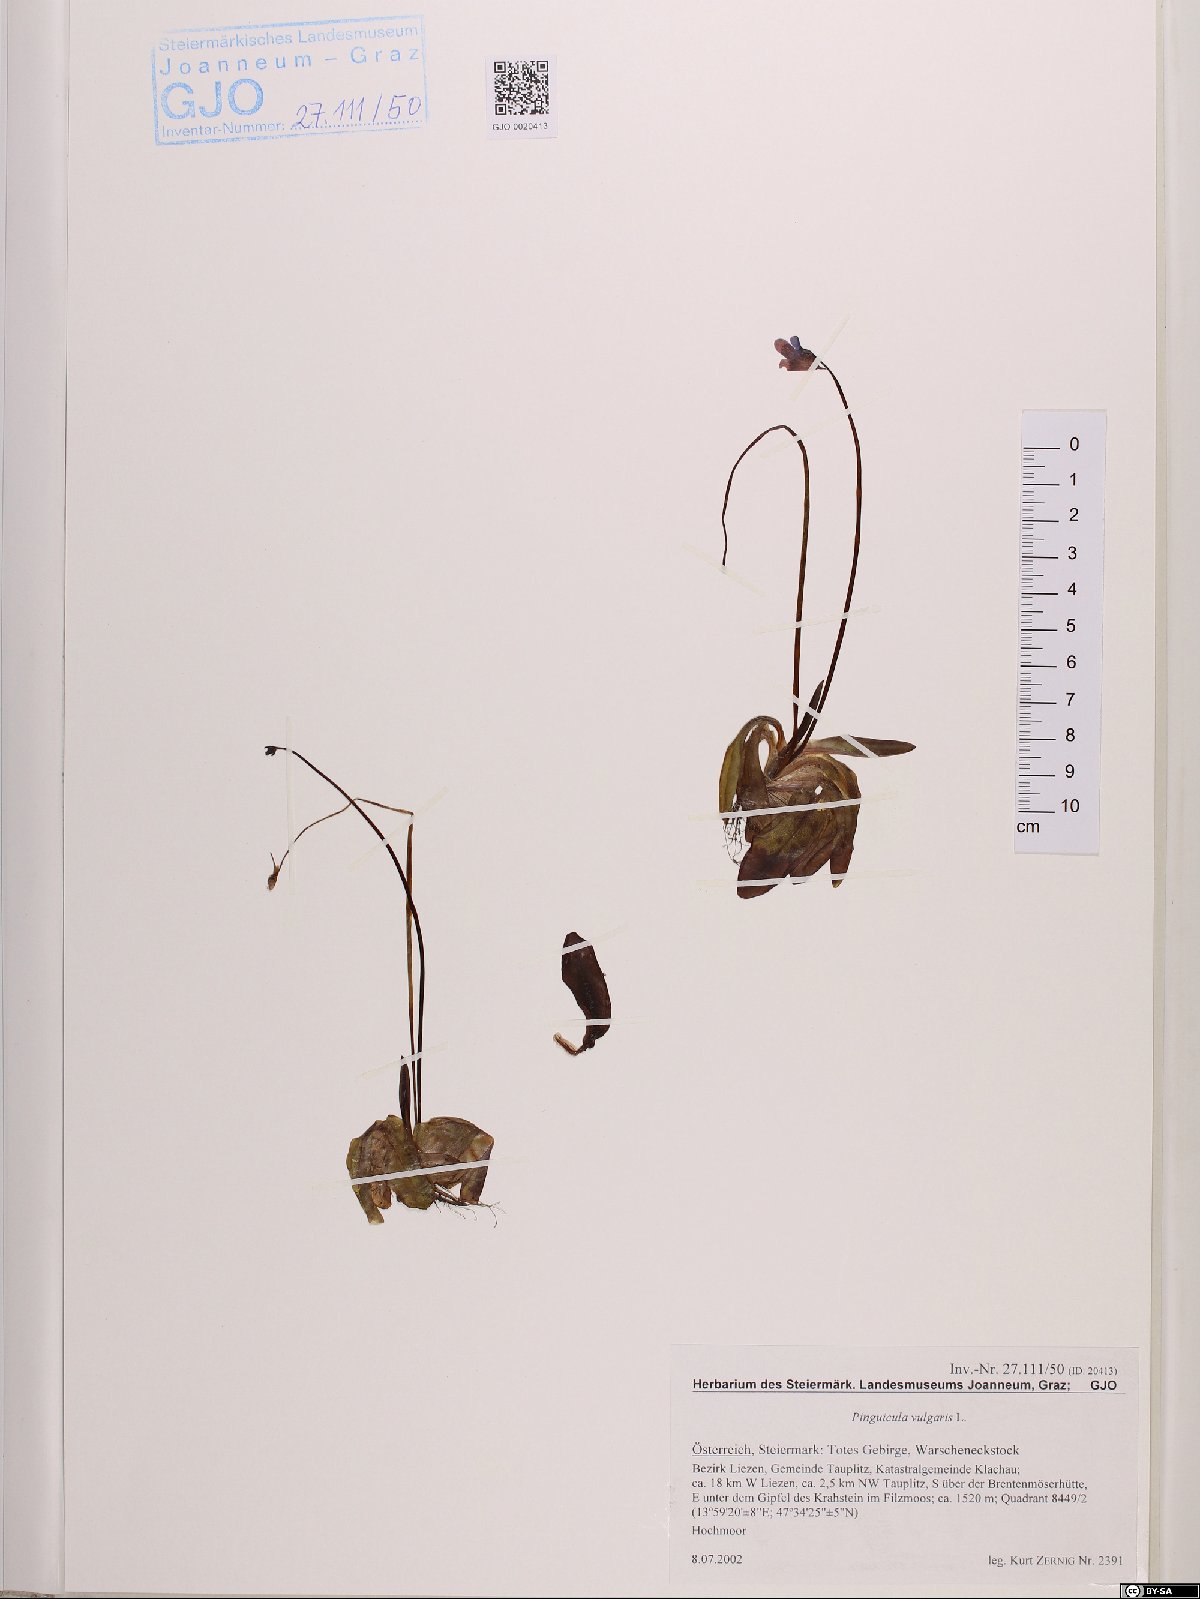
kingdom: Plantae
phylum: Tracheophyta
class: Magnoliopsida
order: Lamiales
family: Lentibulariaceae
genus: Pinguicula
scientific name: Pinguicula vulgaris
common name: Common butterwort
